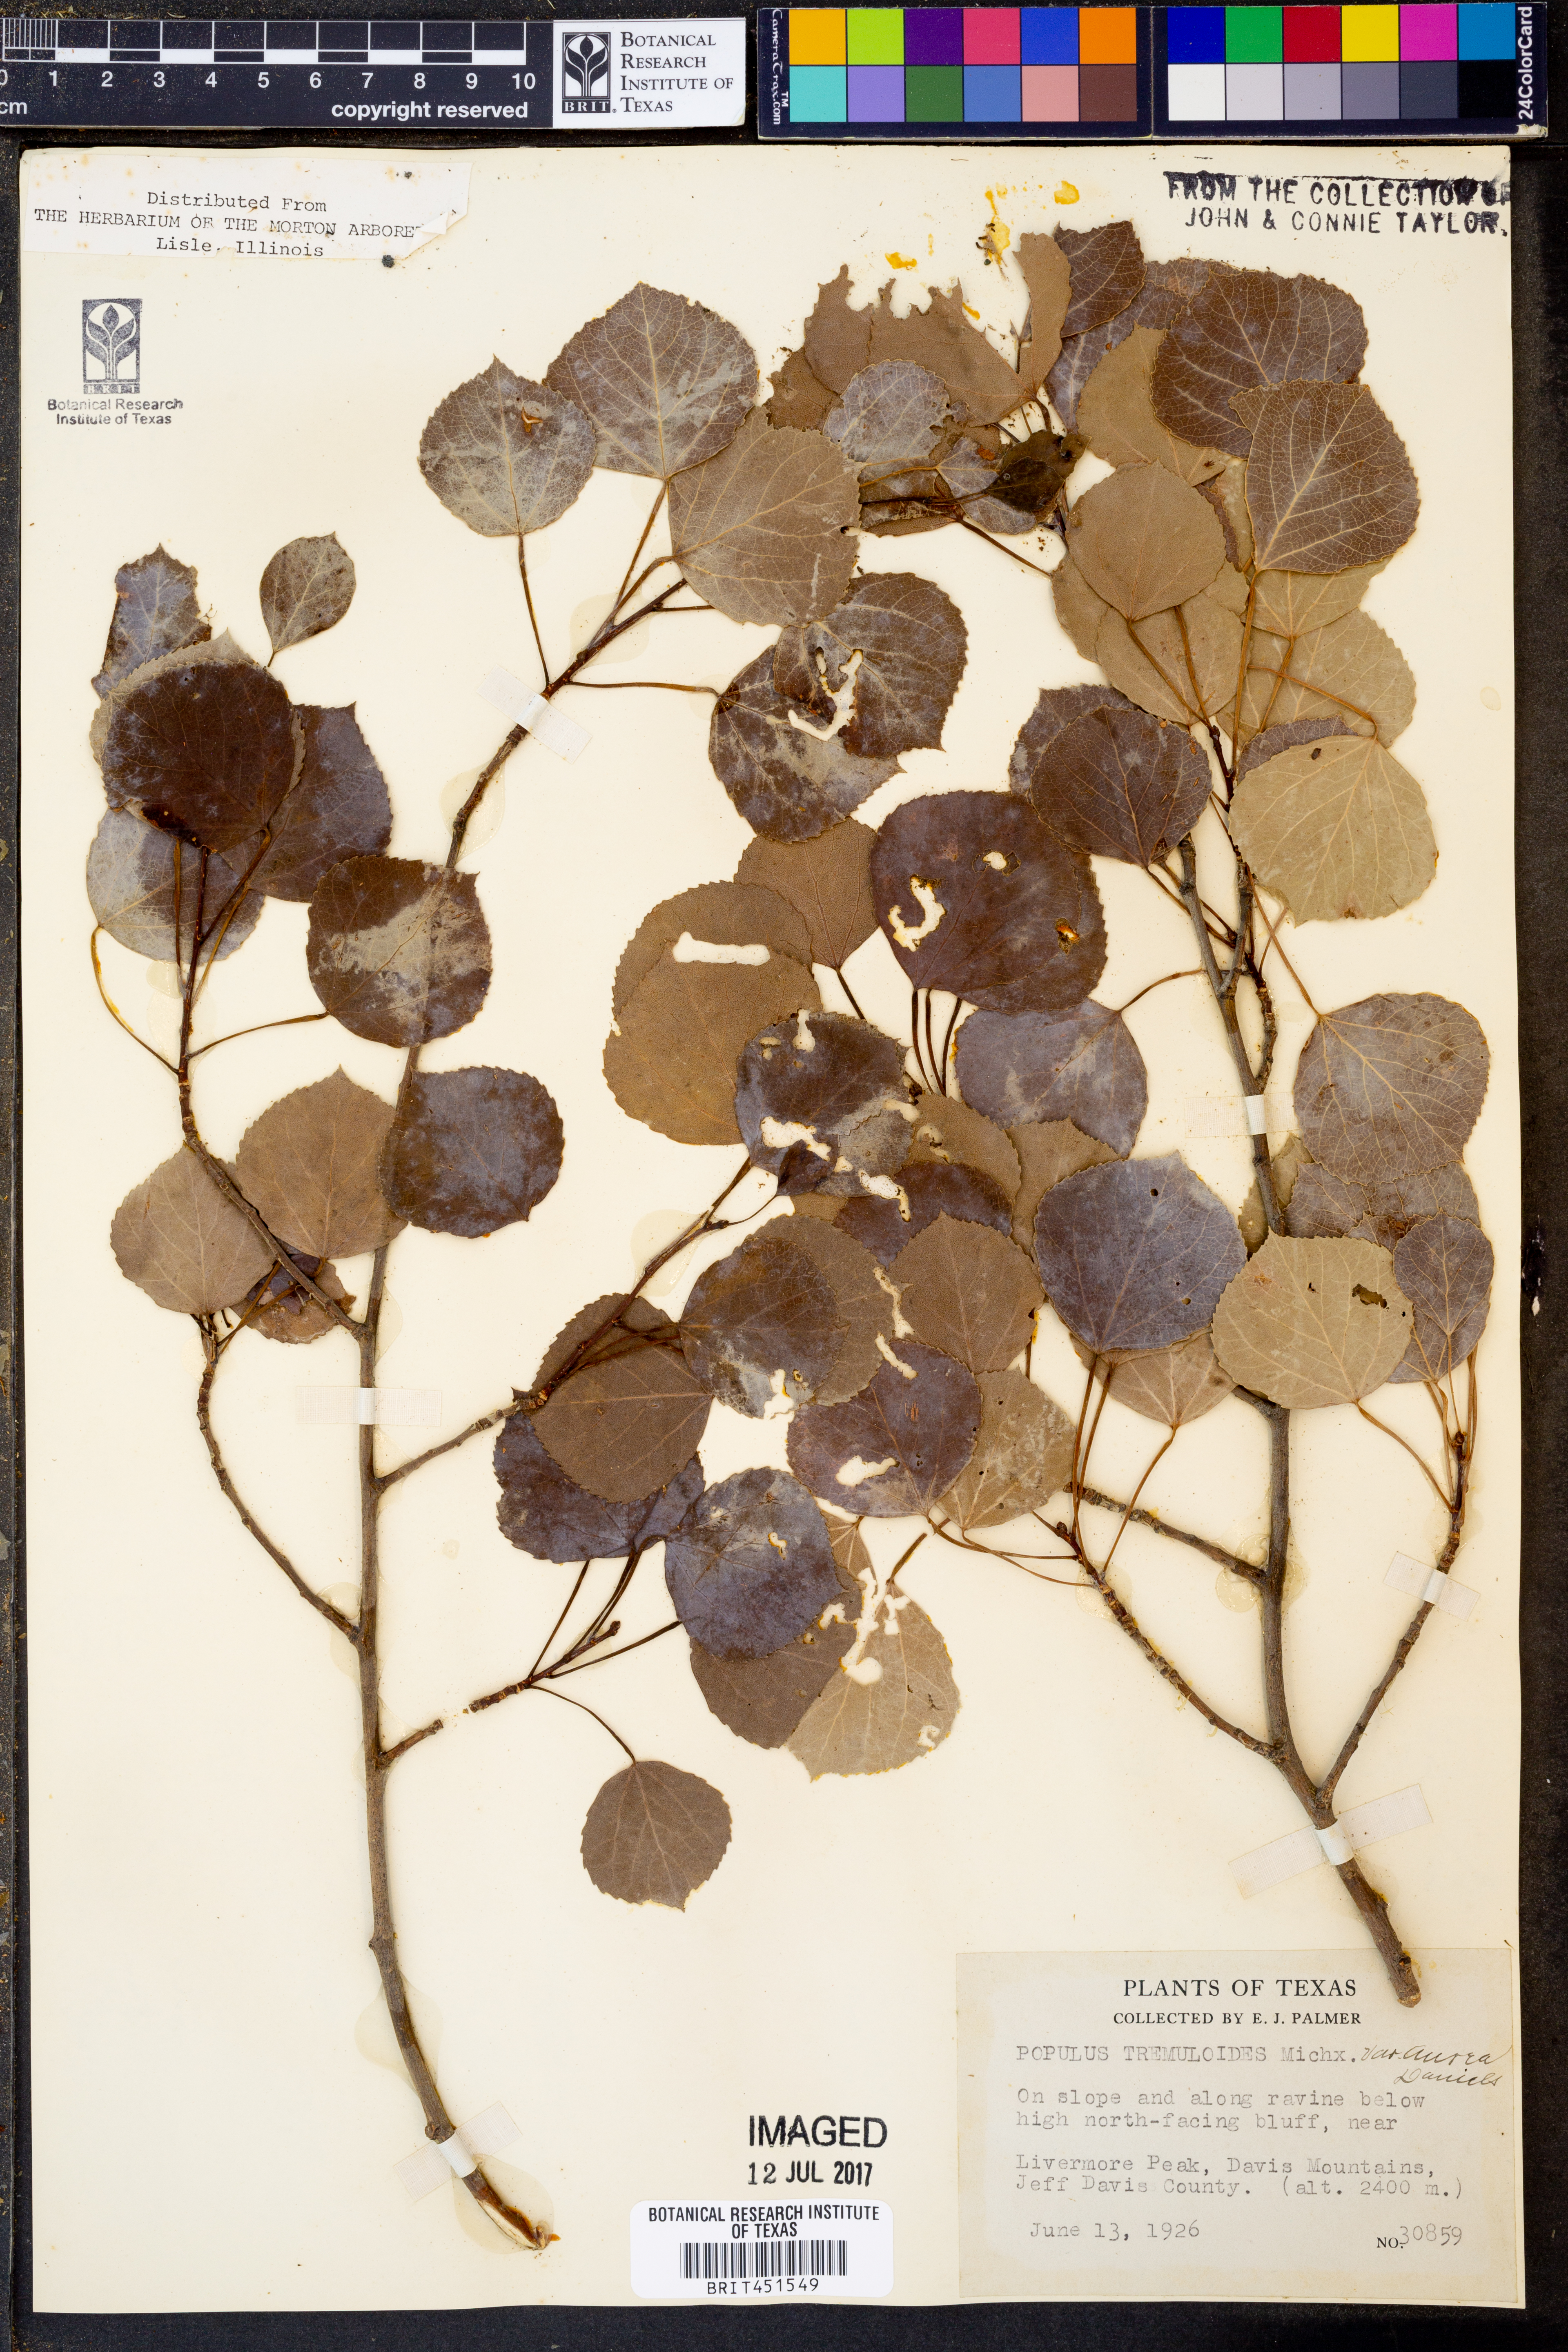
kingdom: Plantae
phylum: Tracheophyta
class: Magnoliopsida
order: Malpighiales
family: Salicaceae
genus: Populus
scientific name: Populus tremuloides
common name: Quaking aspen
